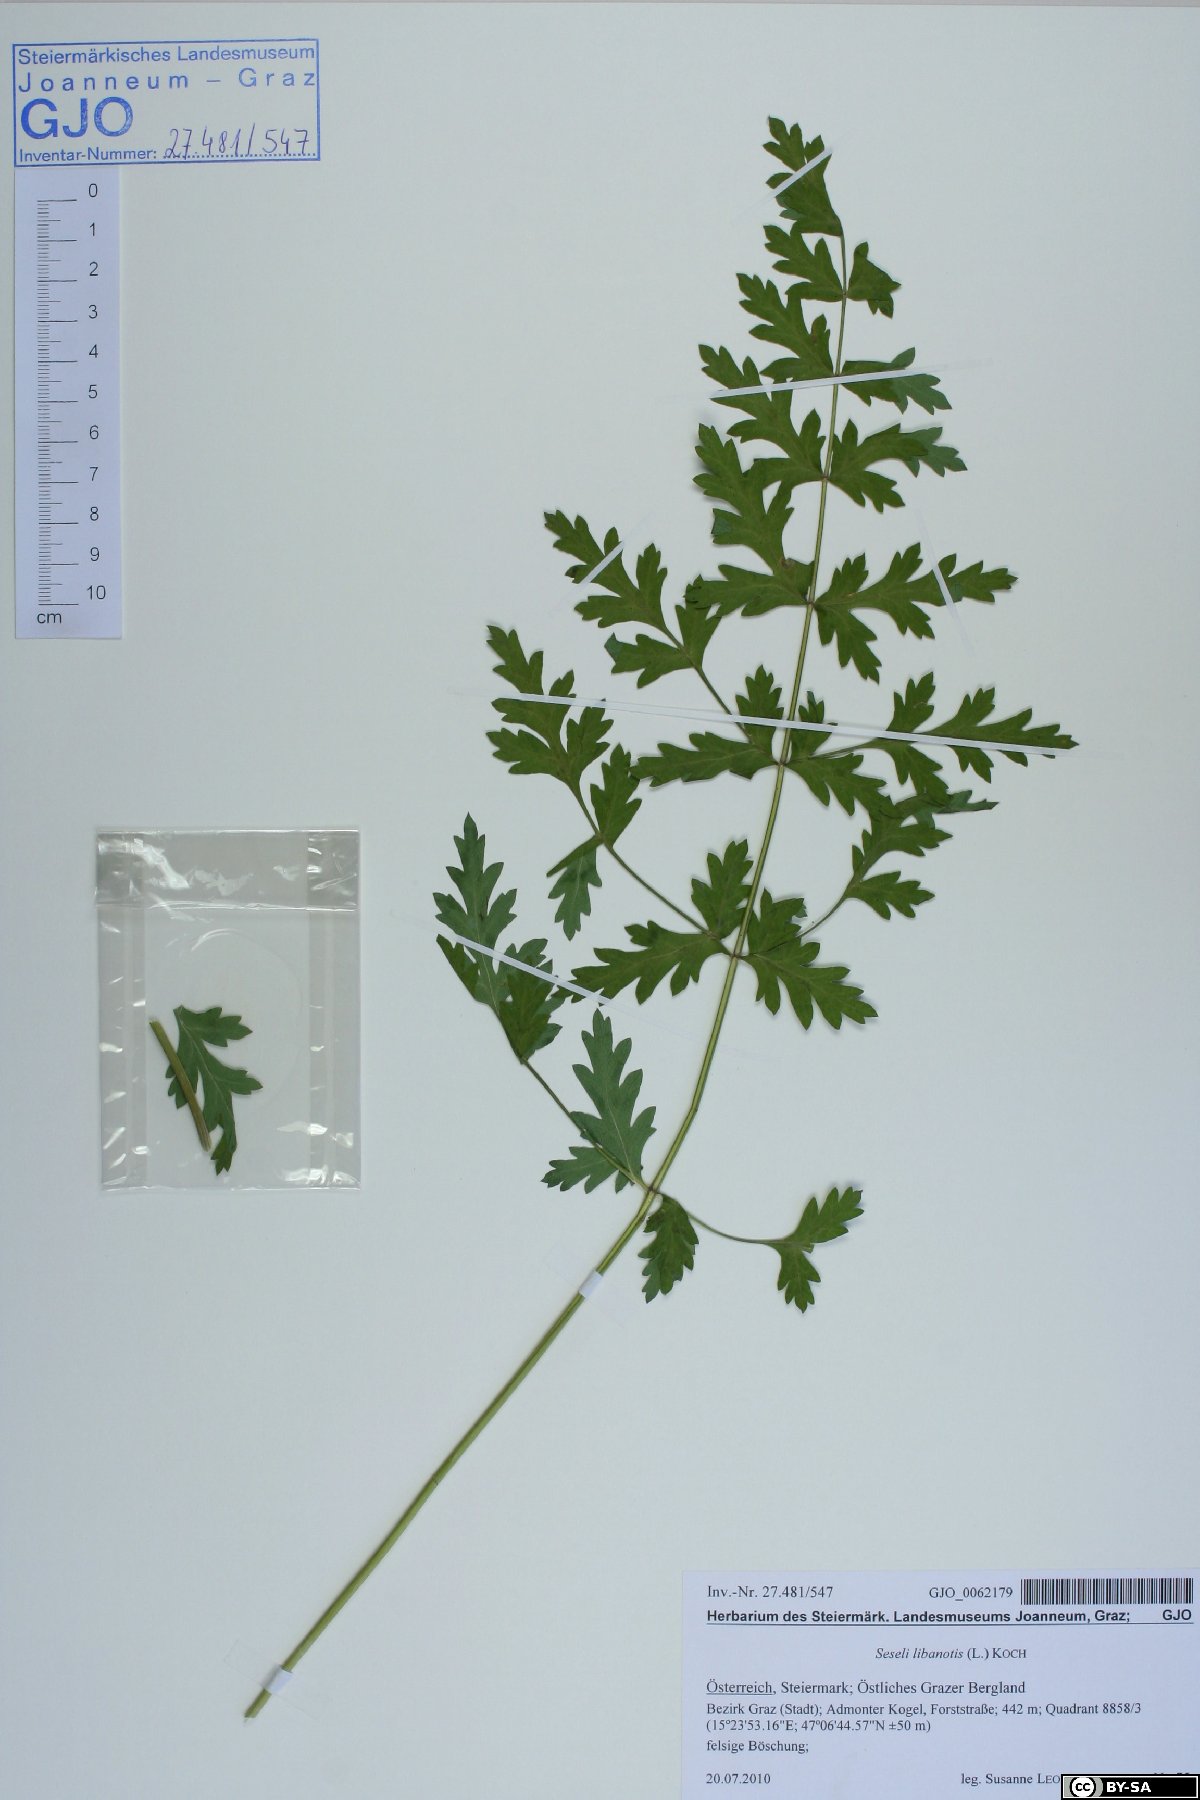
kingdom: Plantae
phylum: Tracheophyta
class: Magnoliopsida
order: Apiales
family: Apiaceae
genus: Seseli
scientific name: Seseli libanotis
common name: Mooncarrot
